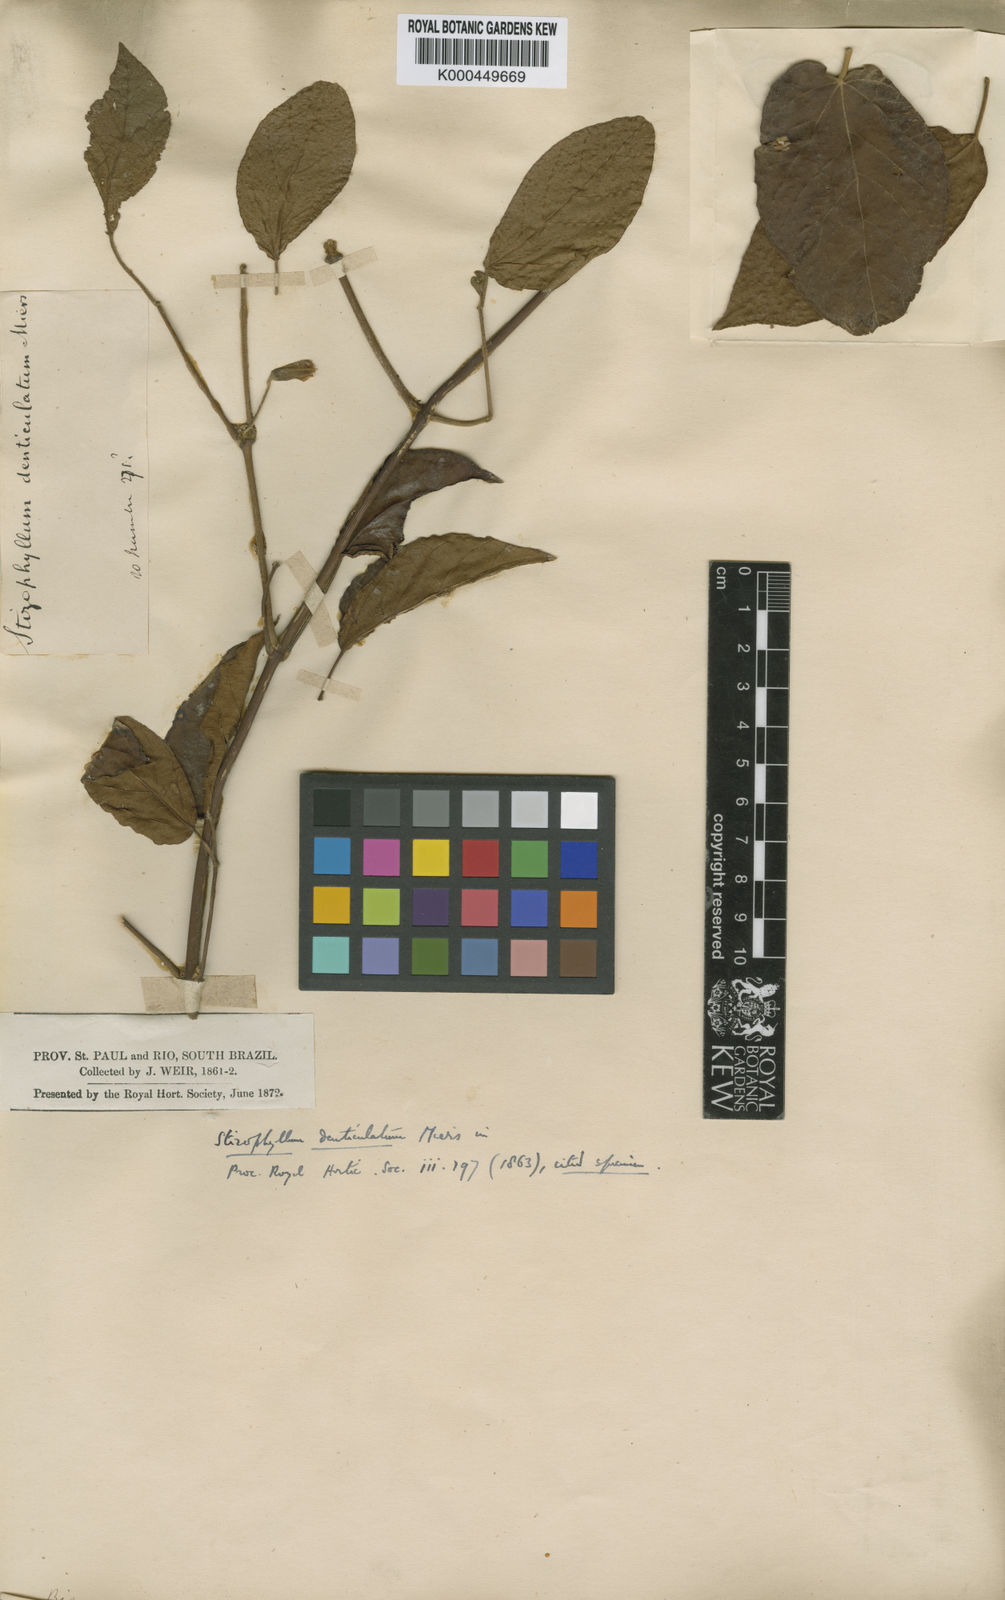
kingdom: Plantae
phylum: Tracheophyta
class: Magnoliopsida
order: Lamiales
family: Bignoniaceae
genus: Stizophyllum
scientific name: Stizophyllum perforatum
